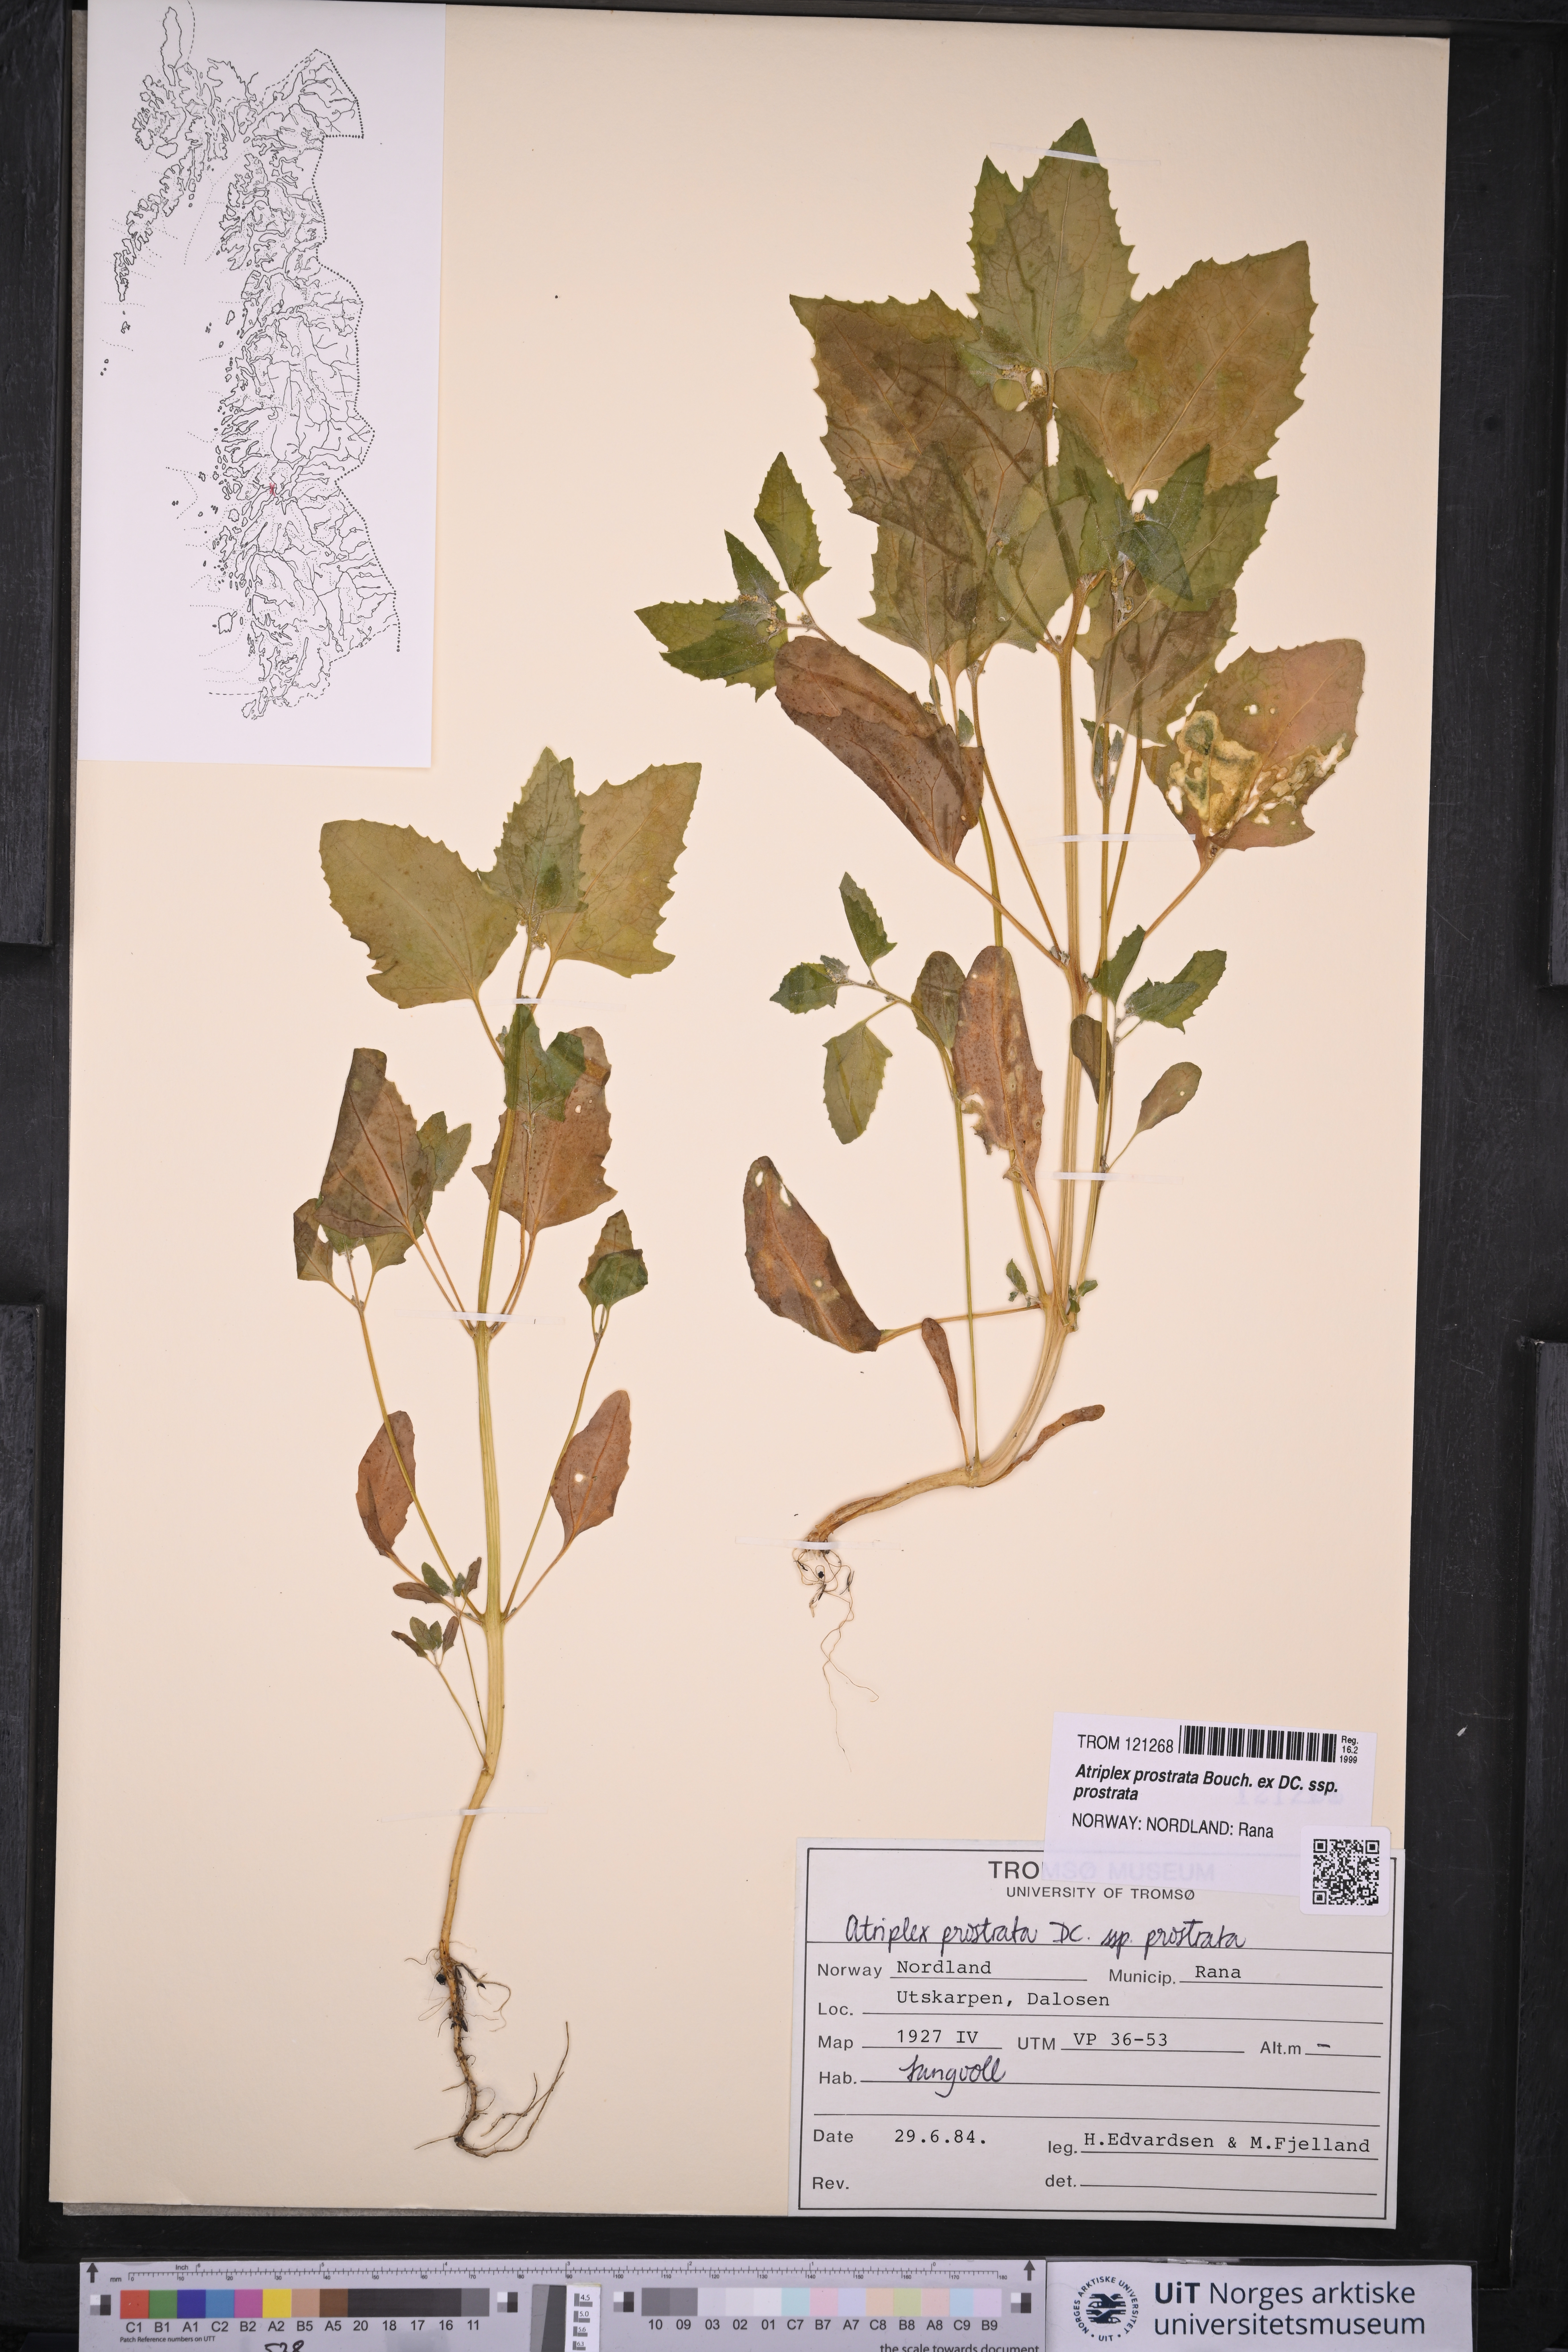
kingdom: Plantae
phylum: Tracheophyta
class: Magnoliopsida
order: Caryophyllales
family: Amaranthaceae
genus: Atriplex
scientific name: Atriplex prostrata
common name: Spear-leaved orache
